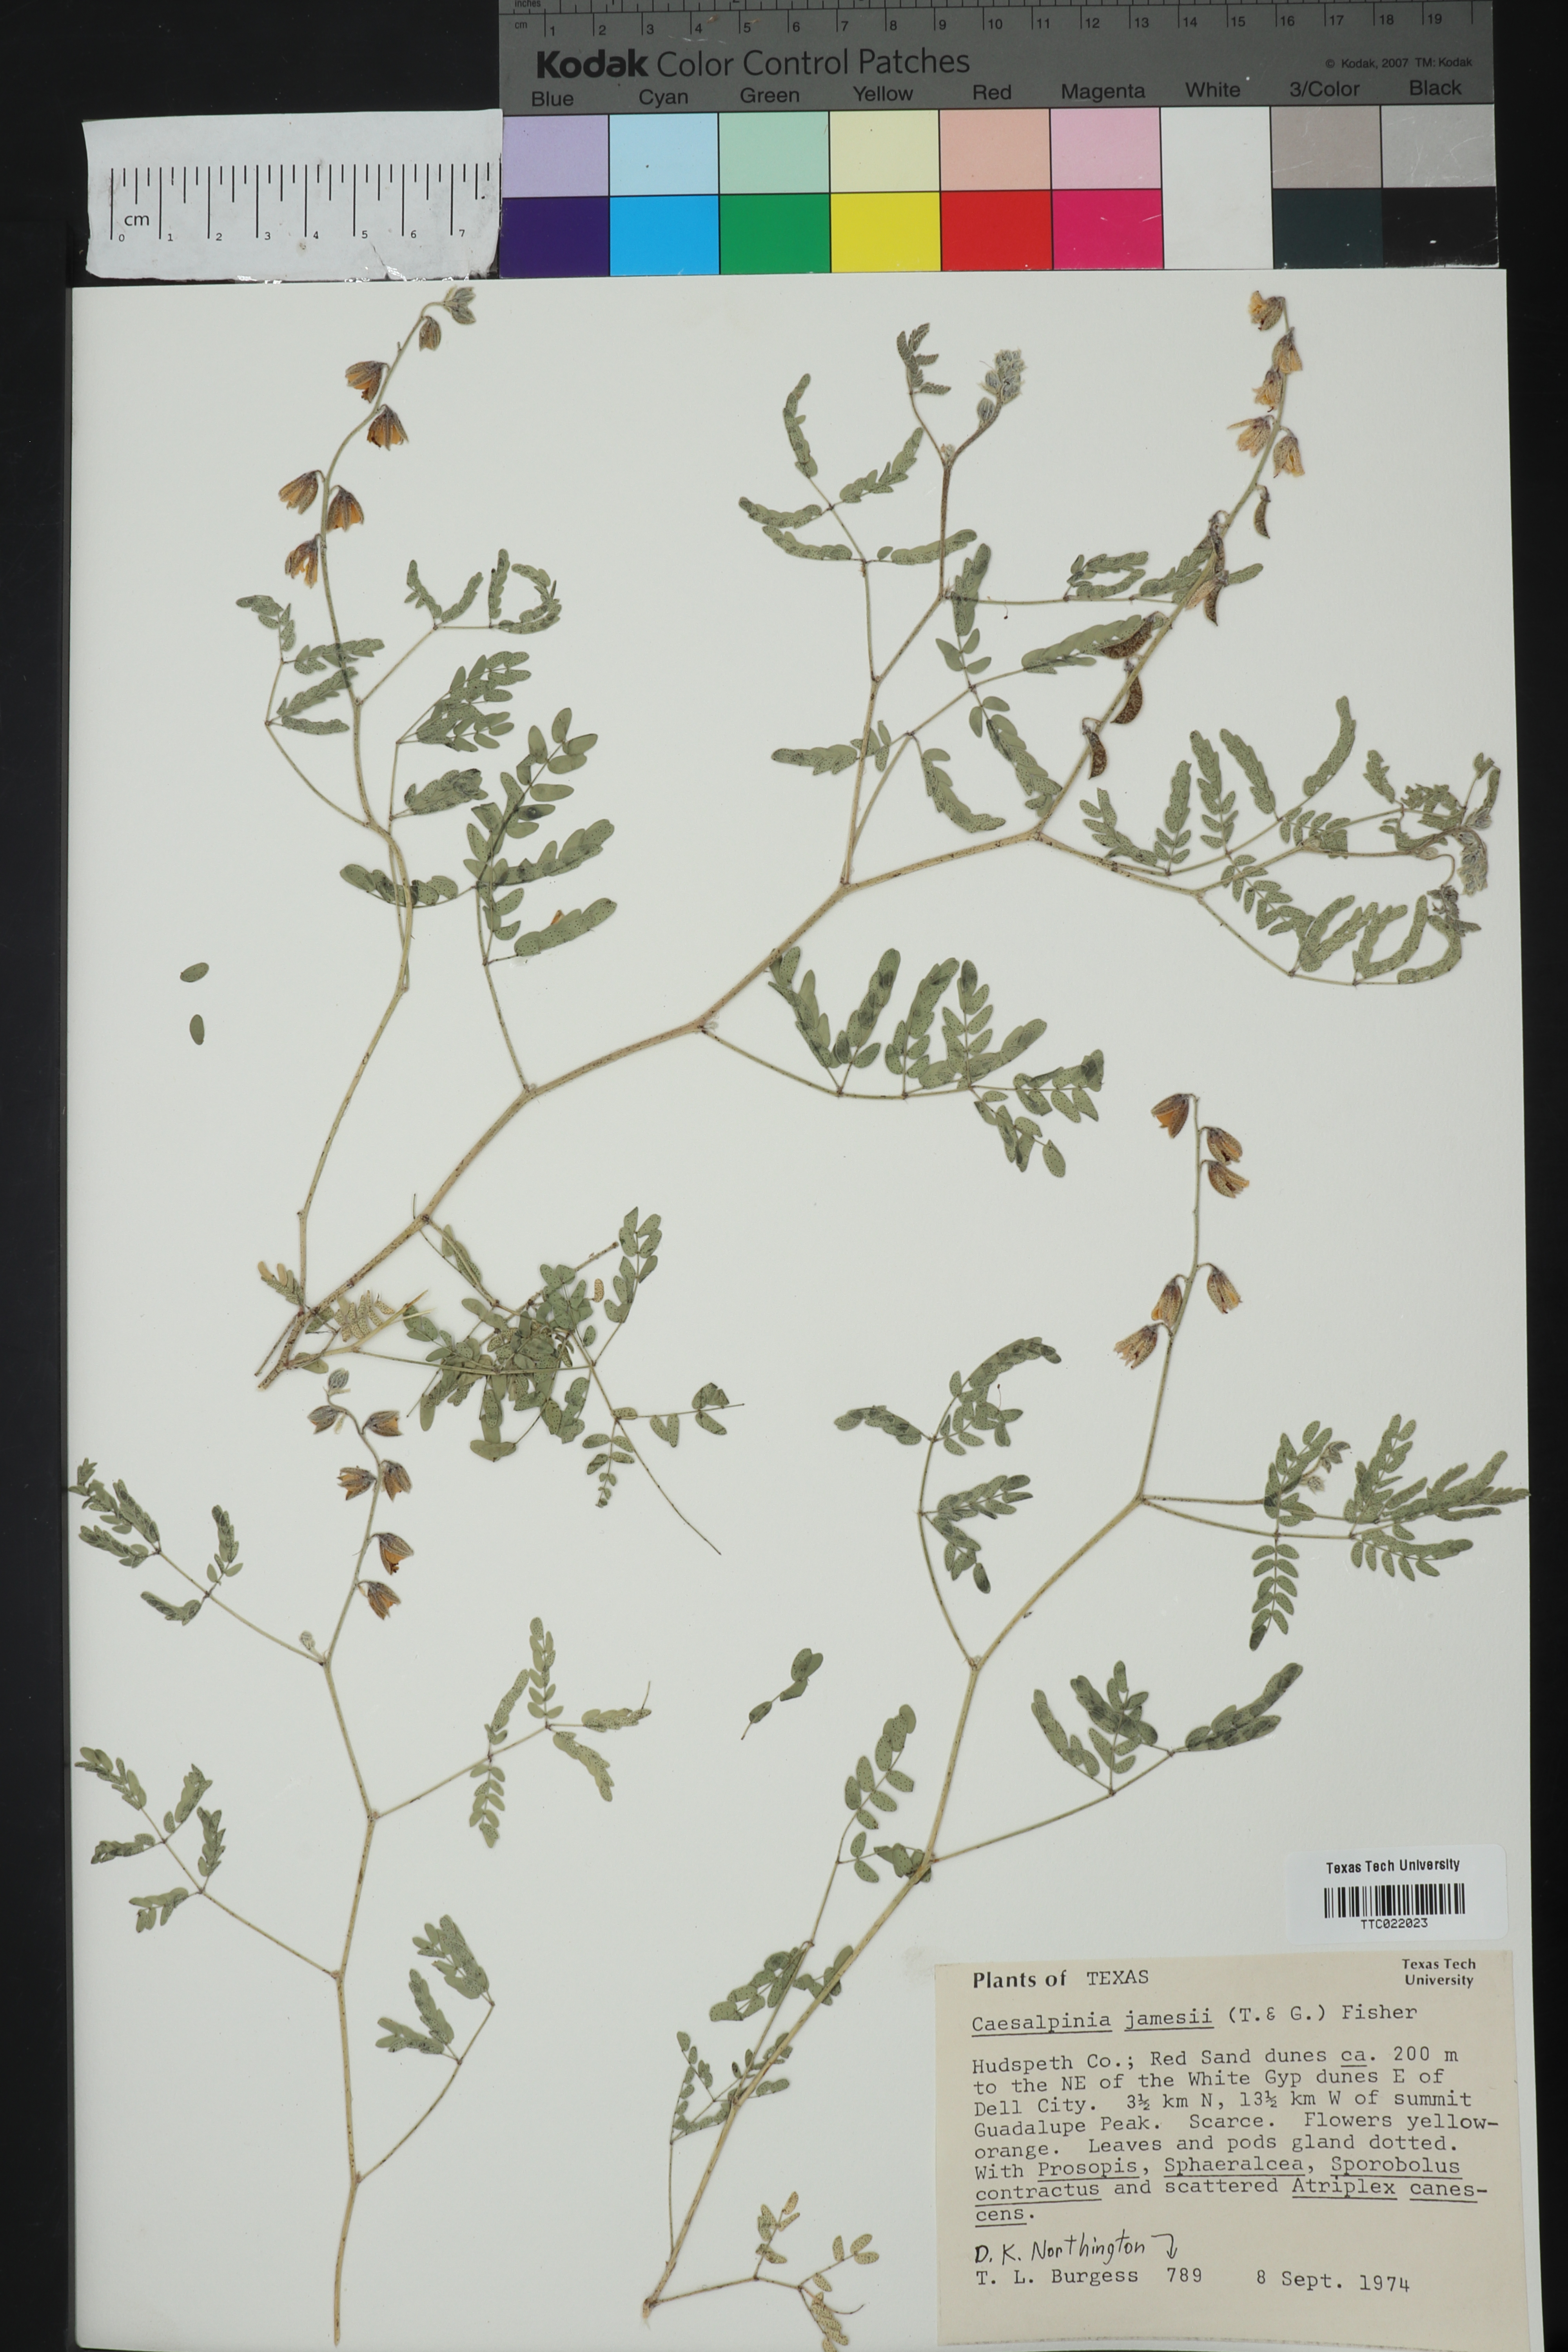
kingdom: Plantae
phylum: Tracheophyta
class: Magnoliopsida
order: Fabales
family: Fabaceae
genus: Pomaria
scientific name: Pomaria jamesii
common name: James' caesalpinia
